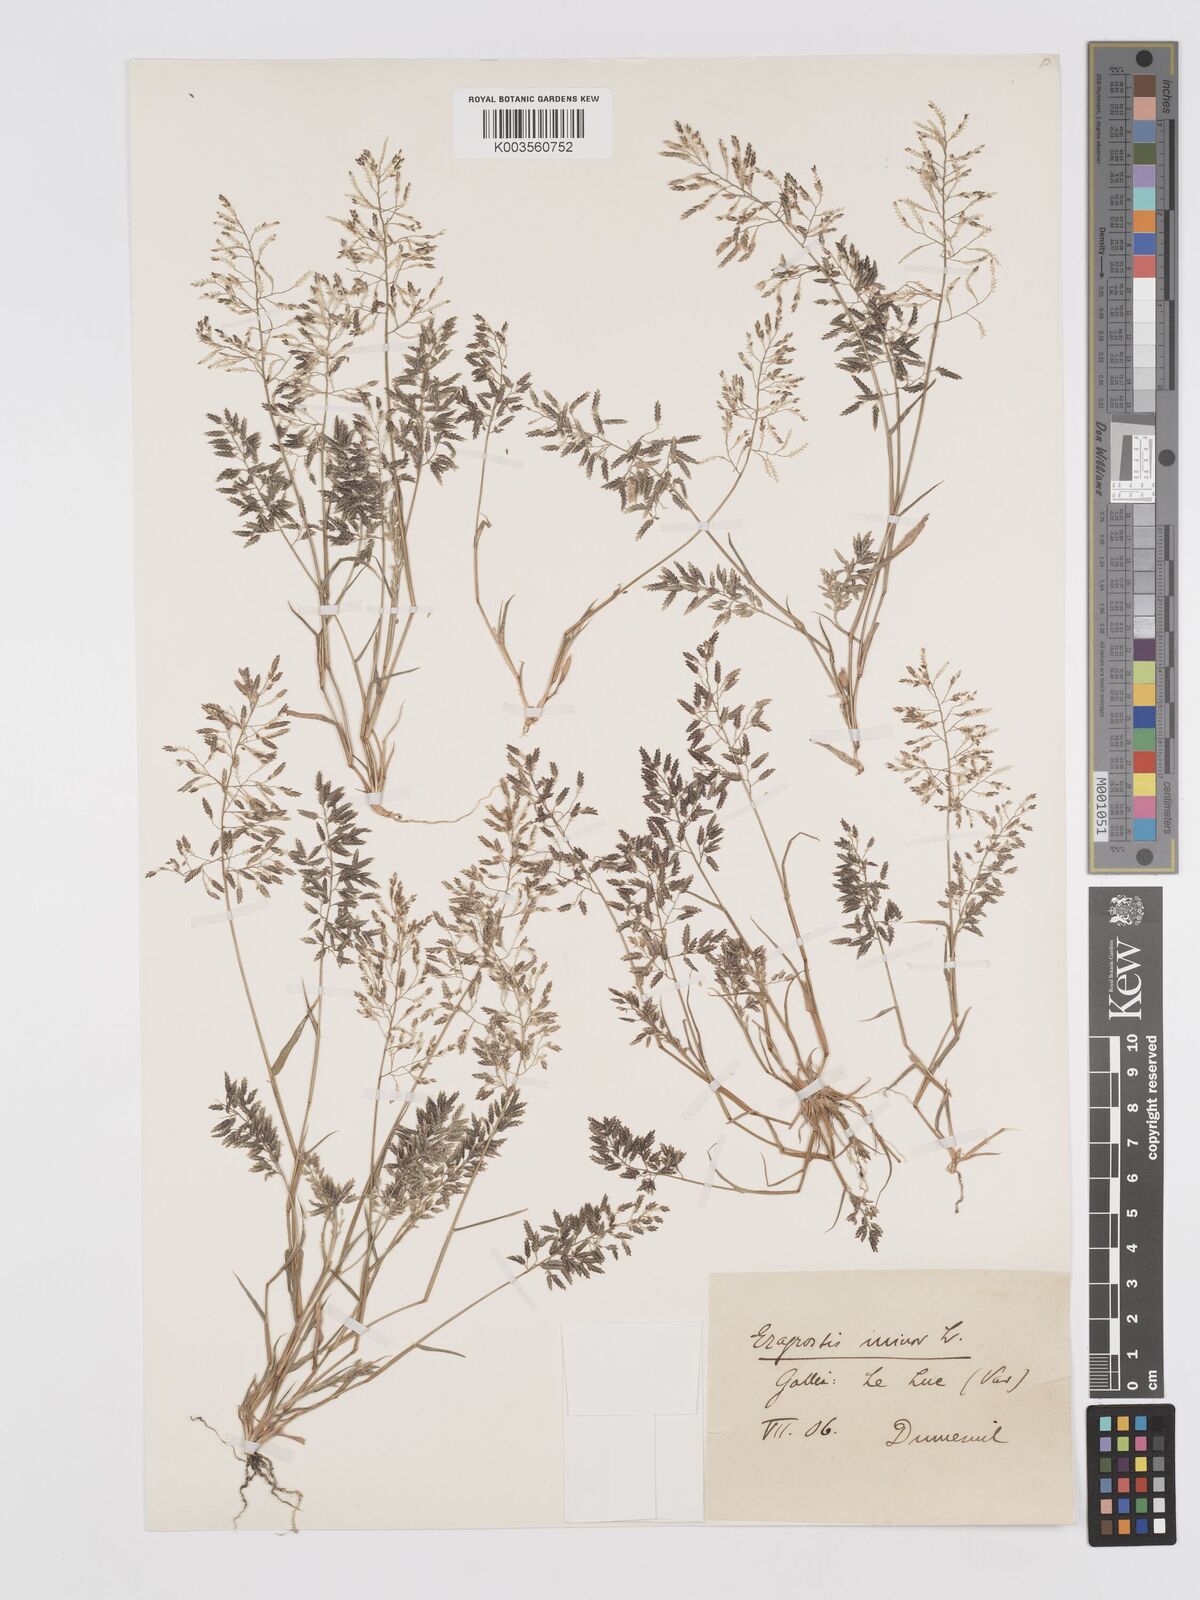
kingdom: Plantae
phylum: Tracheophyta
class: Liliopsida
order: Poales
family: Poaceae
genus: Eragrostis
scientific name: Eragrostis minor
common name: Small love-grass
